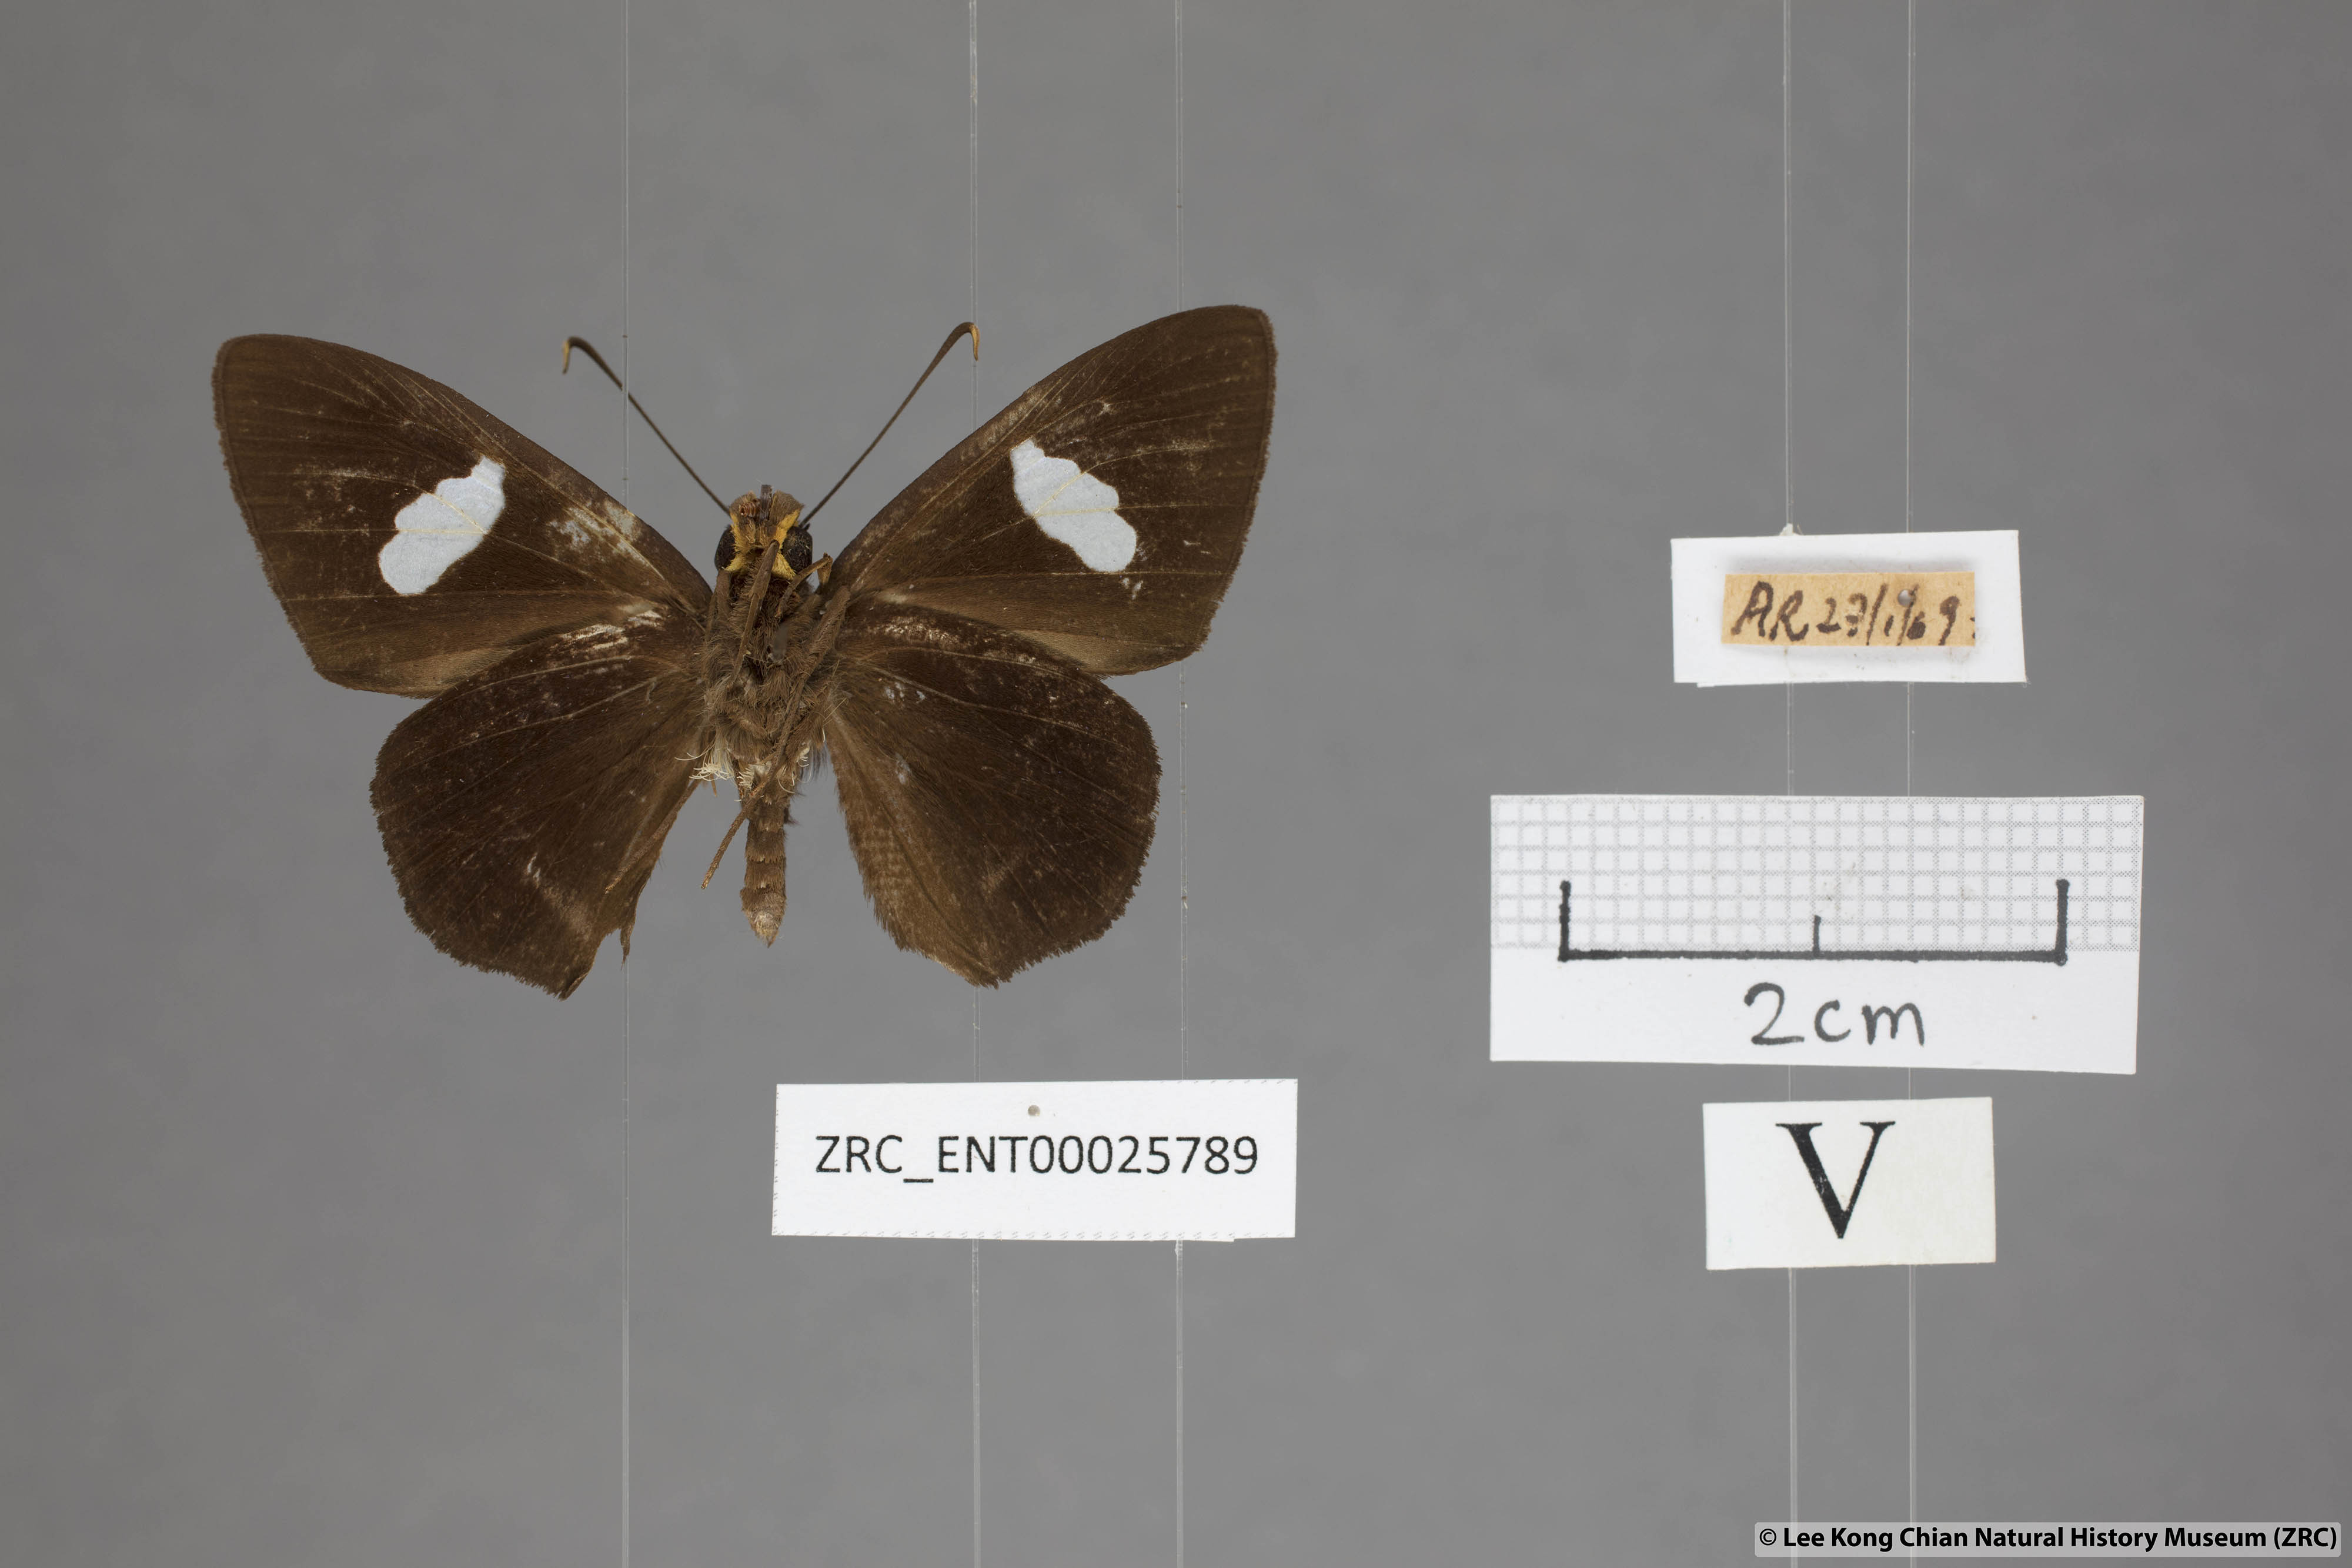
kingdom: Animalia
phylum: Arthropoda
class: Insecta
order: Lepidoptera
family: Hesperiidae
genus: Celaenorrhinus
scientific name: Celaenorrhinus ficulnea
